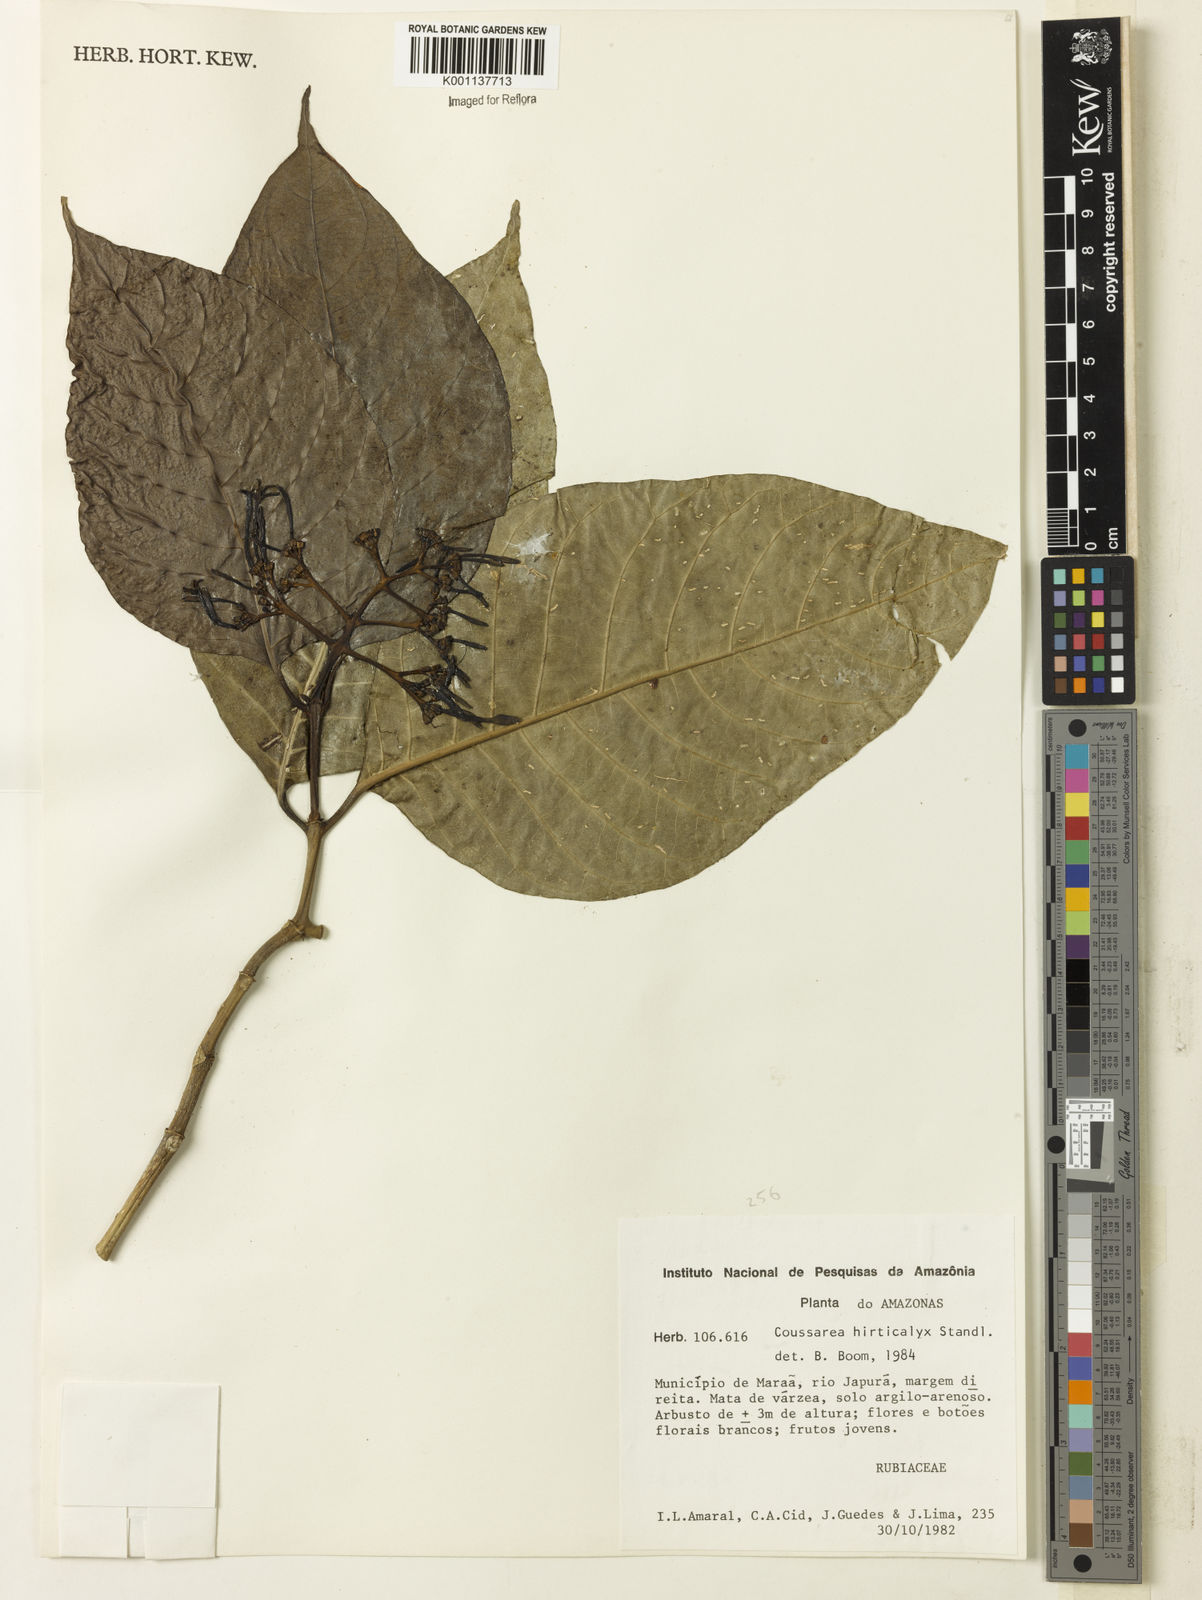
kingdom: Plantae
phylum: Tracheophyta
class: Magnoliopsida
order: Gentianales
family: Rubiaceae
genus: Coussarea
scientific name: Coussarea hirticalyx
